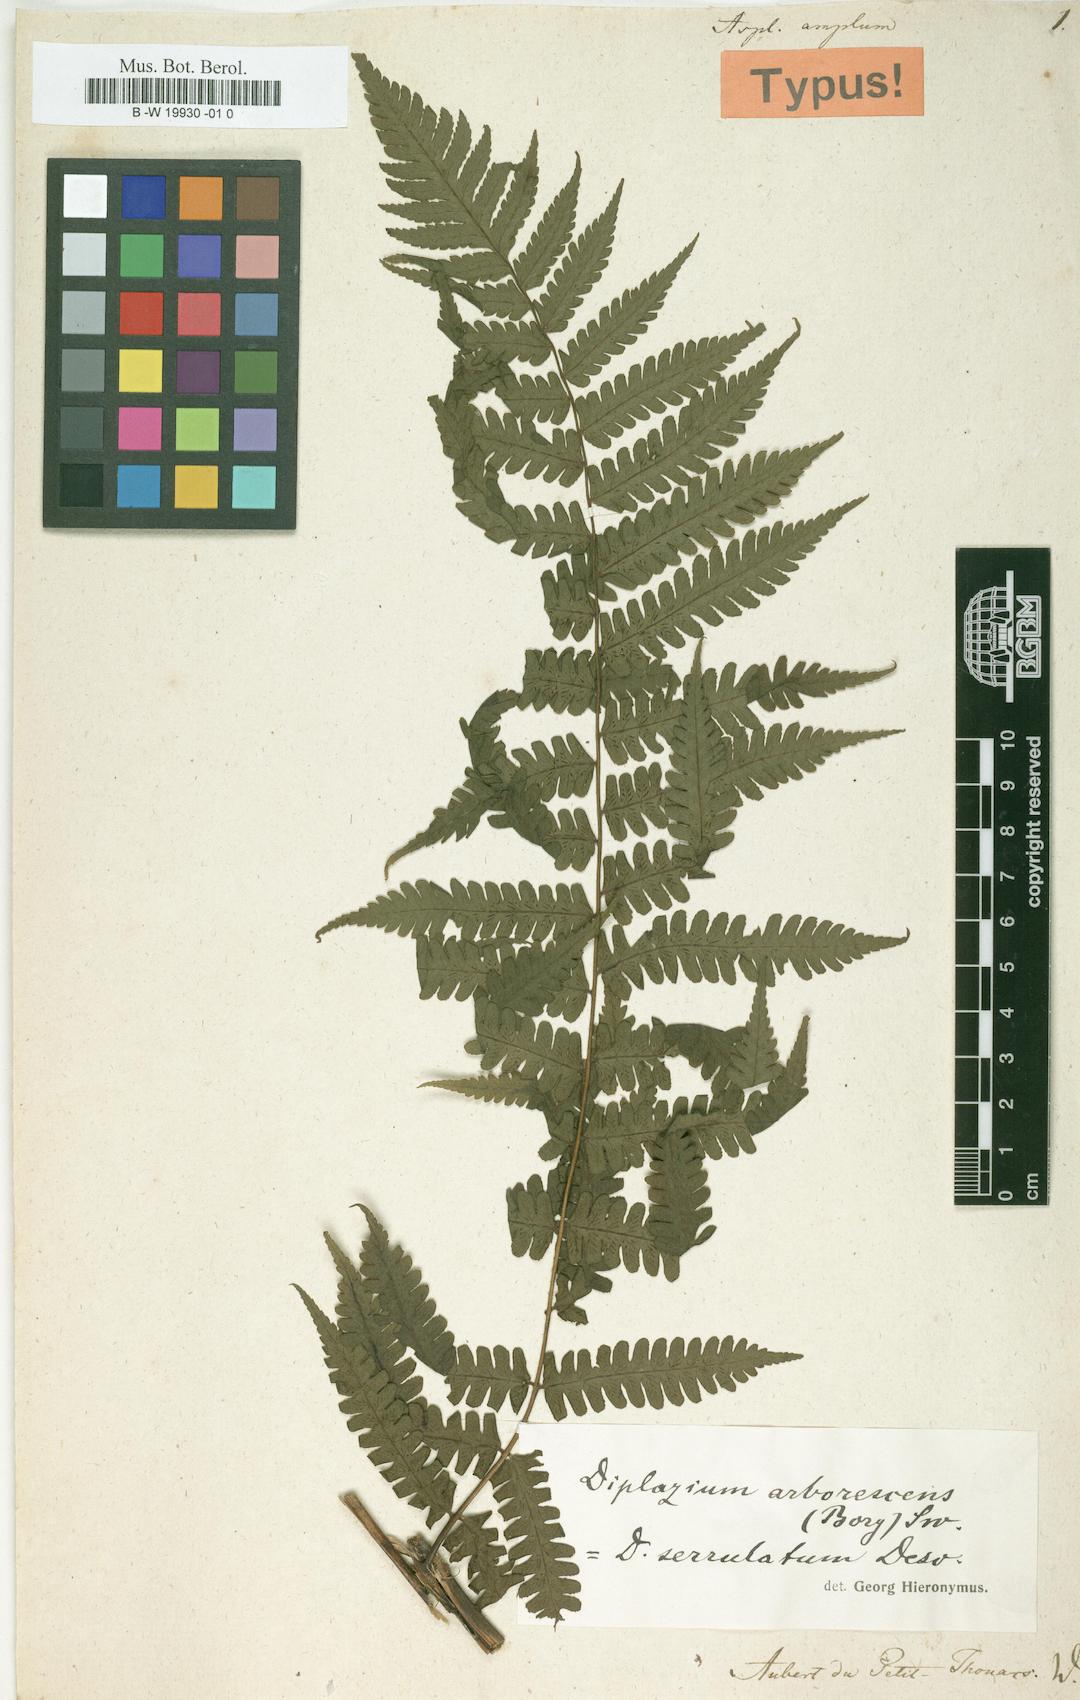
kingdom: Plantae
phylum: Tracheophyta
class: Polypodiopsida
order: Polypodiales
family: Athyriaceae
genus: Diplazium
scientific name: Diplazium arborescens
